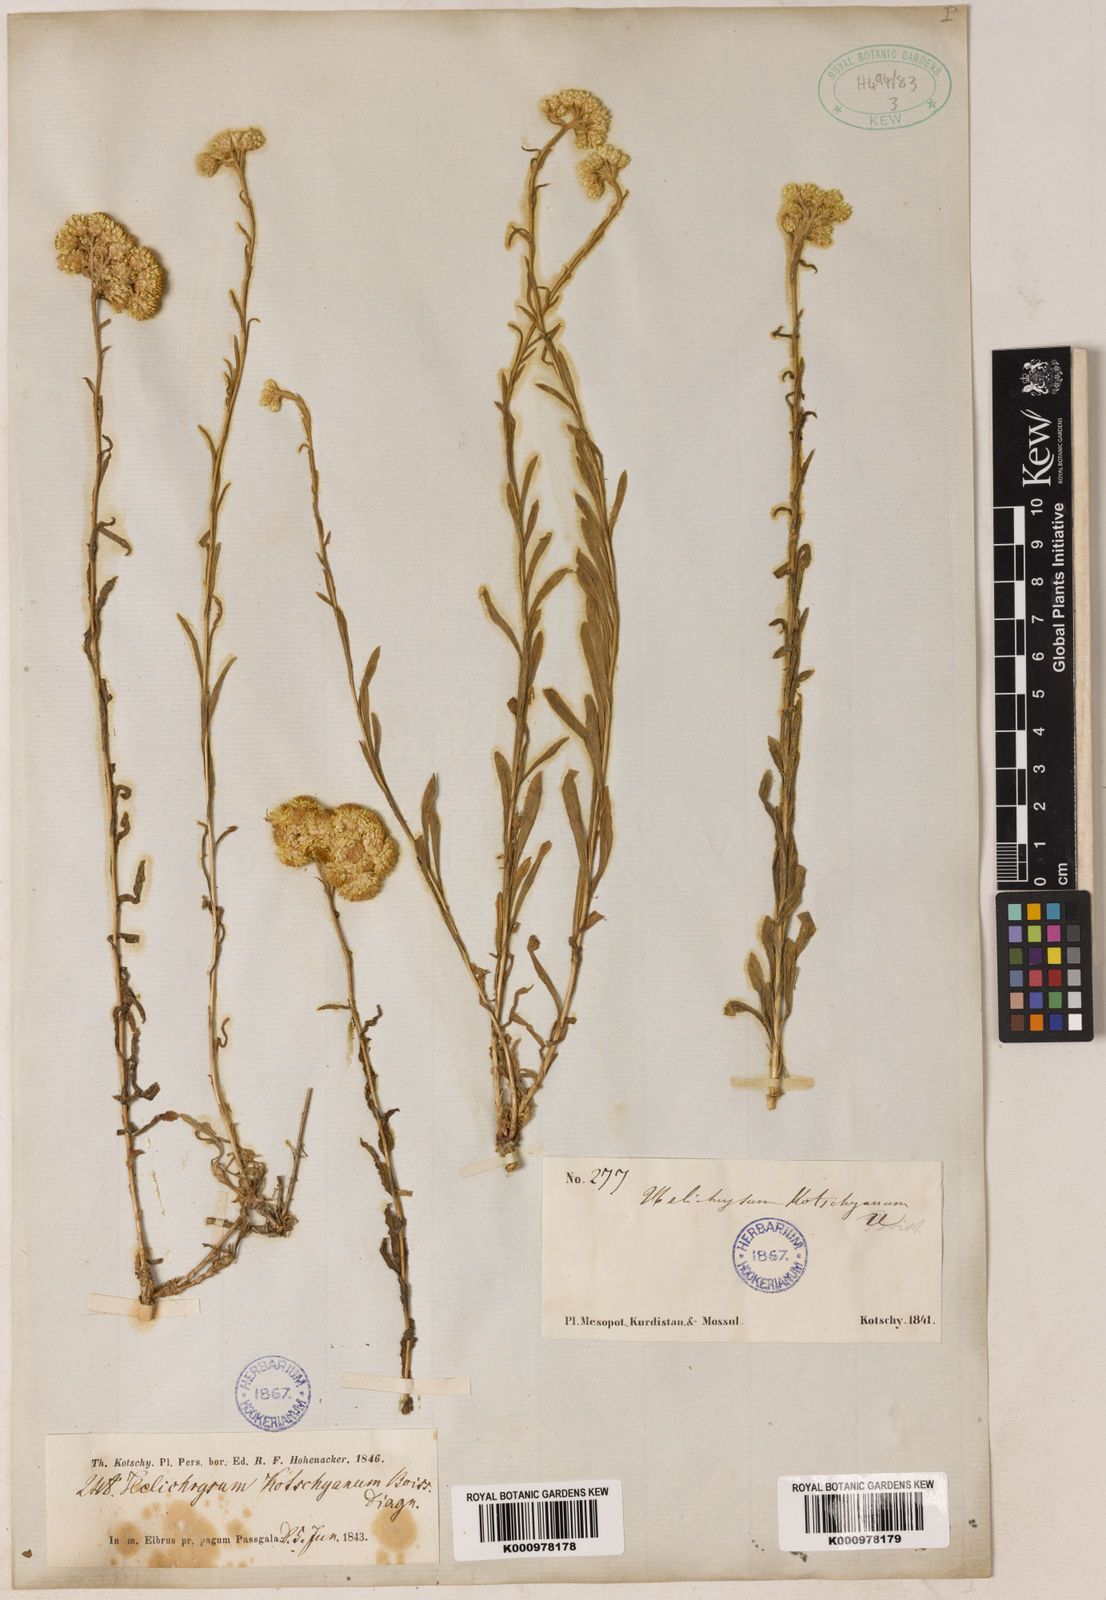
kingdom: Plantae
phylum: Tracheophyta
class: Magnoliopsida
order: Asterales
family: Asteraceae
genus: Helichrysum
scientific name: Helichrysum armenium
